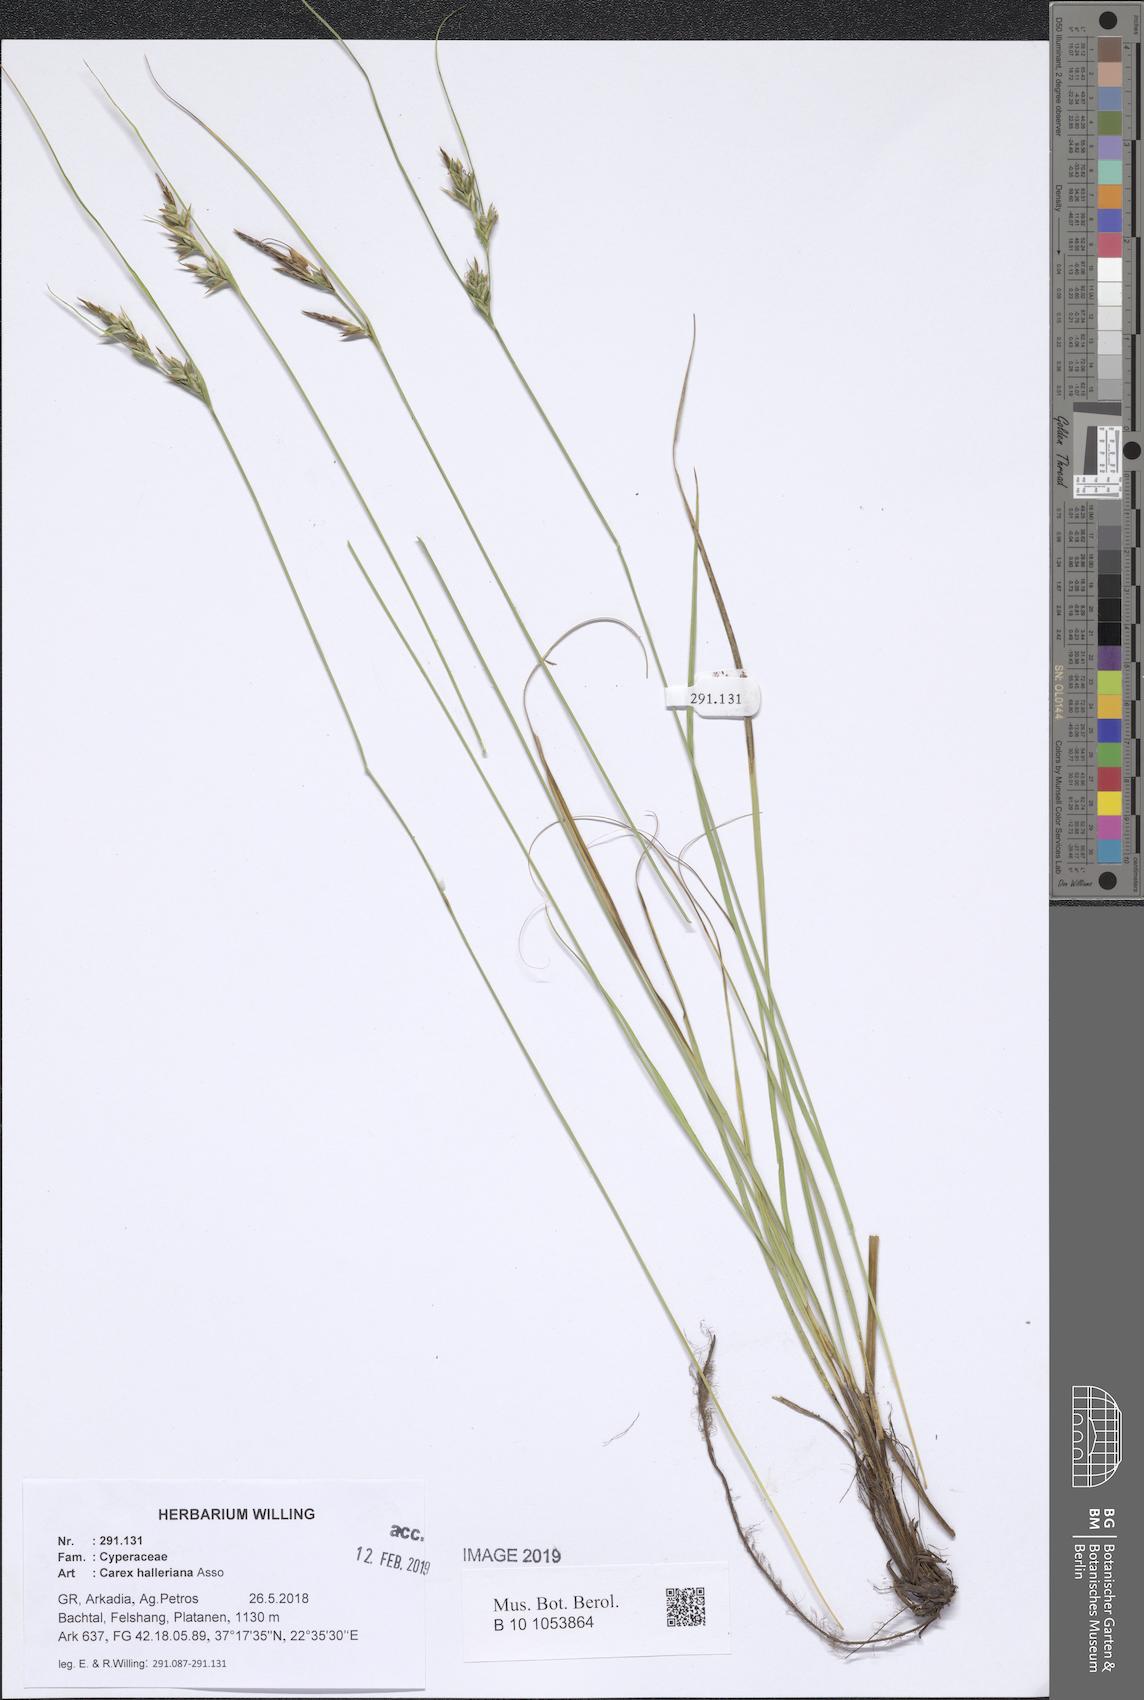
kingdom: Plantae
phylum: Tracheophyta
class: Liliopsida
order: Poales
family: Cyperaceae
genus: Carex
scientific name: Carex halleriana
